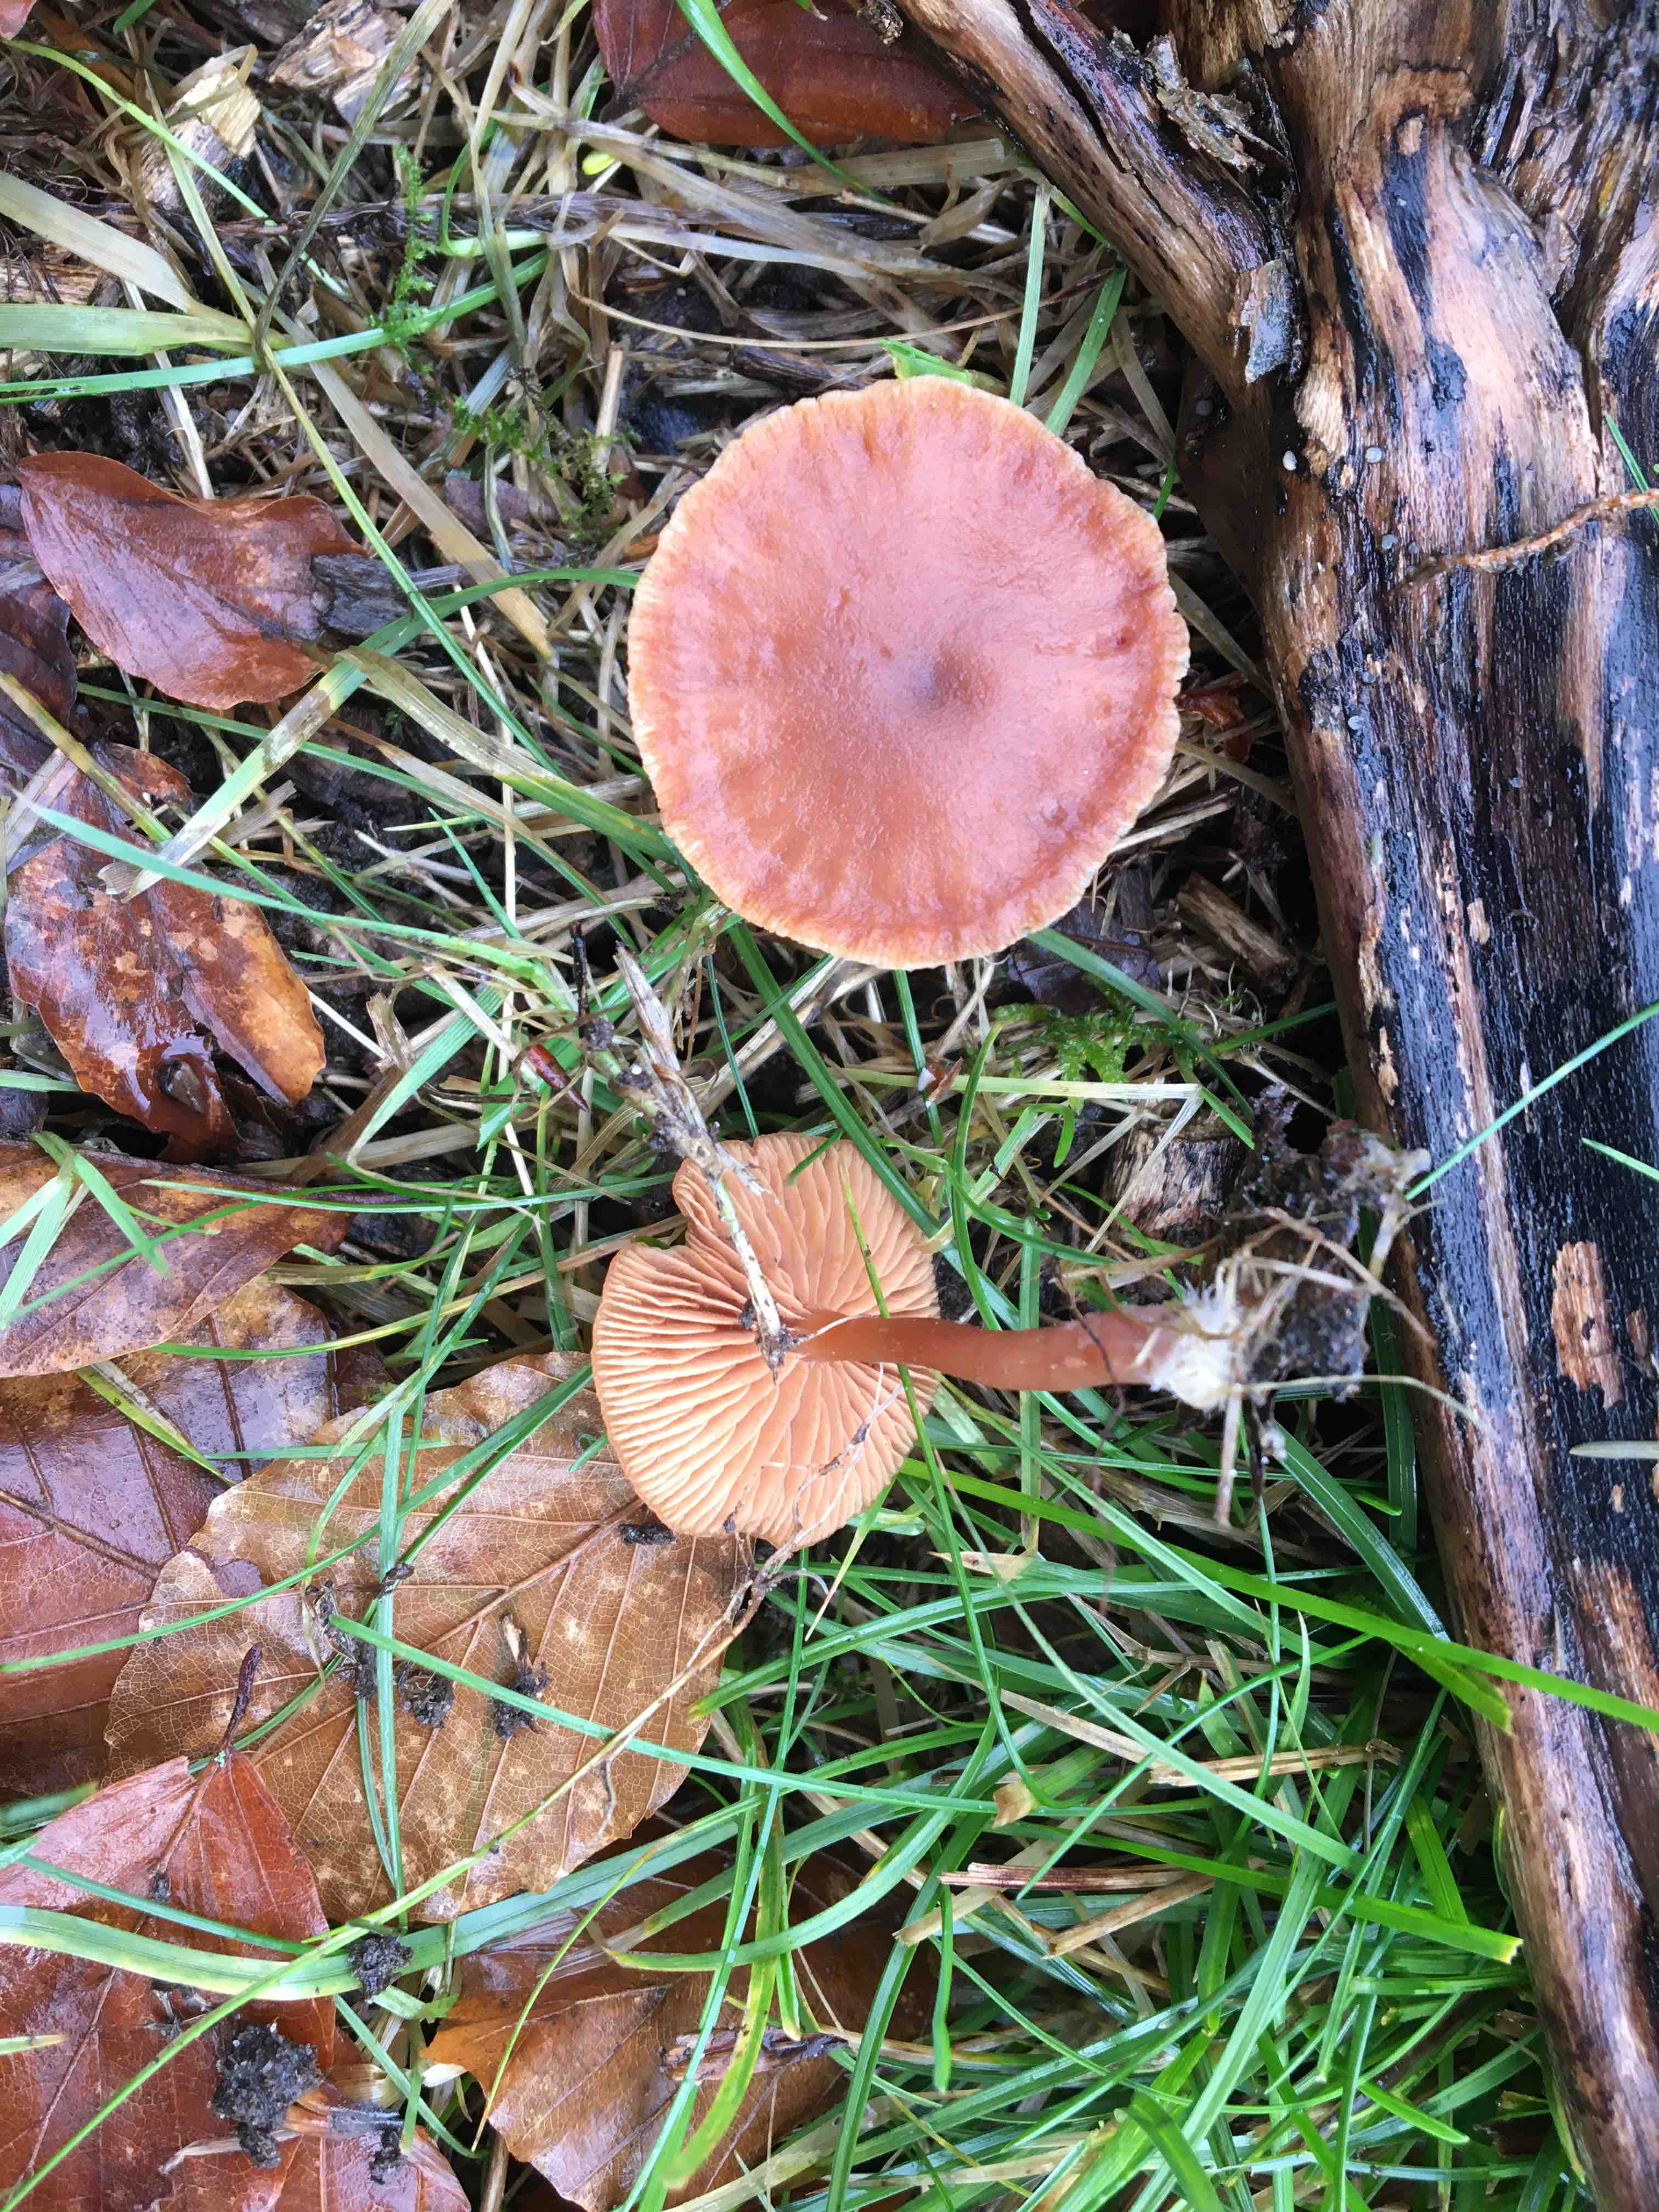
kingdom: Fungi
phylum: Basidiomycota
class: Agaricomycetes
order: Agaricales
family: Tubariaceae
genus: Tubaria
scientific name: Tubaria furfuracea
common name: kliddet fnughat
